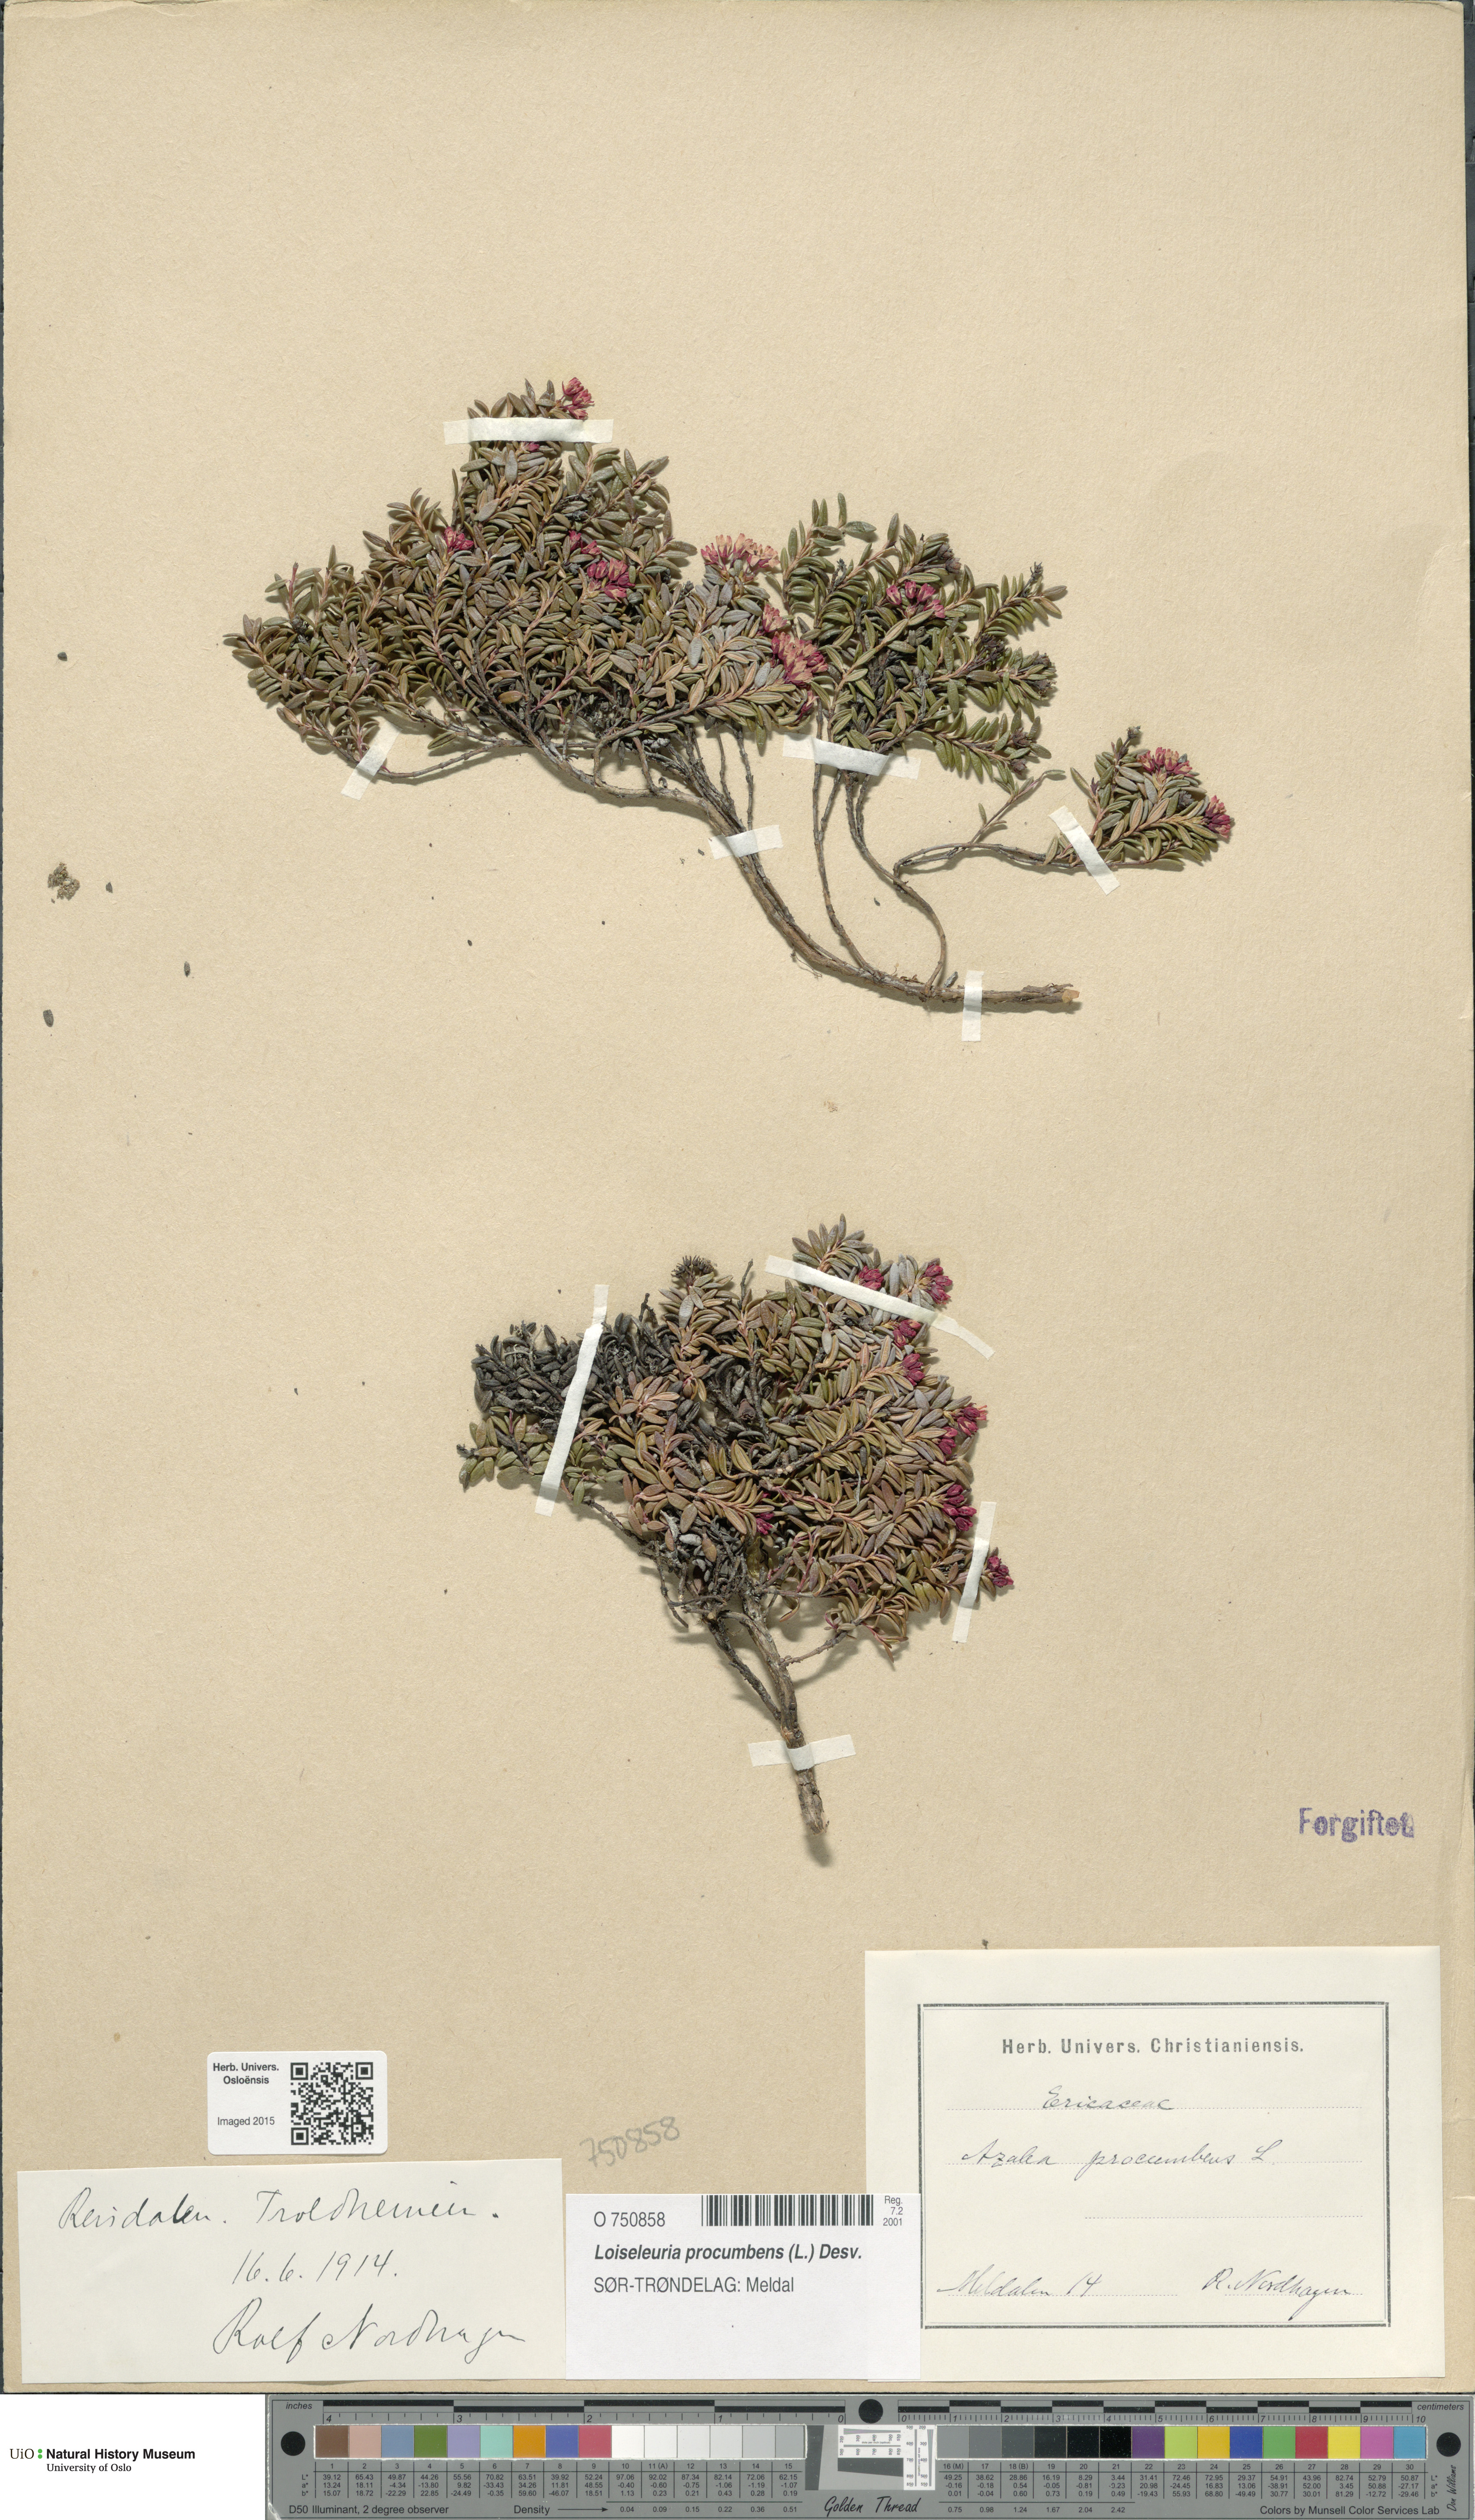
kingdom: Plantae
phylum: Tracheophyta
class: Magnoliopsida
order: Ericales
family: Ericaceae
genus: Kalmia
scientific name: Kalmia procumbens
